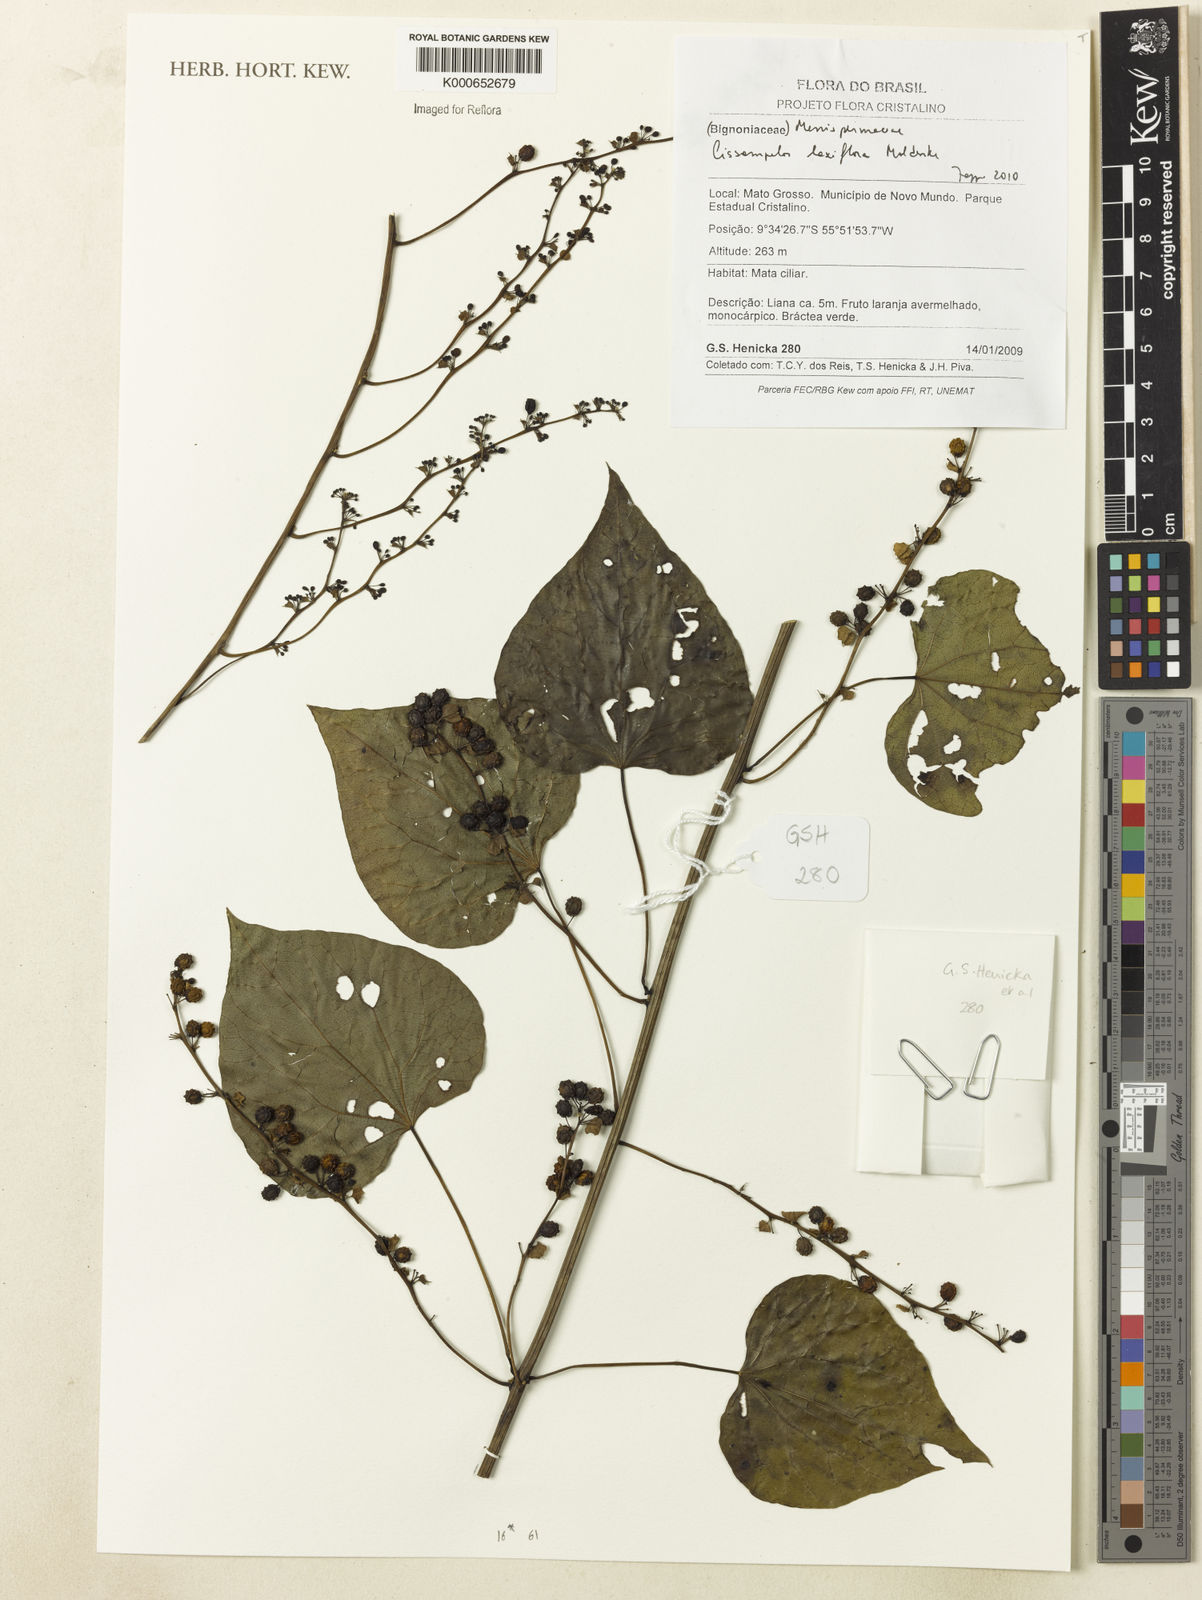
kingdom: Plantae
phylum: Tracheophyta
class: Magnoliopsida
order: Ranunculales
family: Menispermaceae
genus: Cissampelos
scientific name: Cissampelos laxiflora
